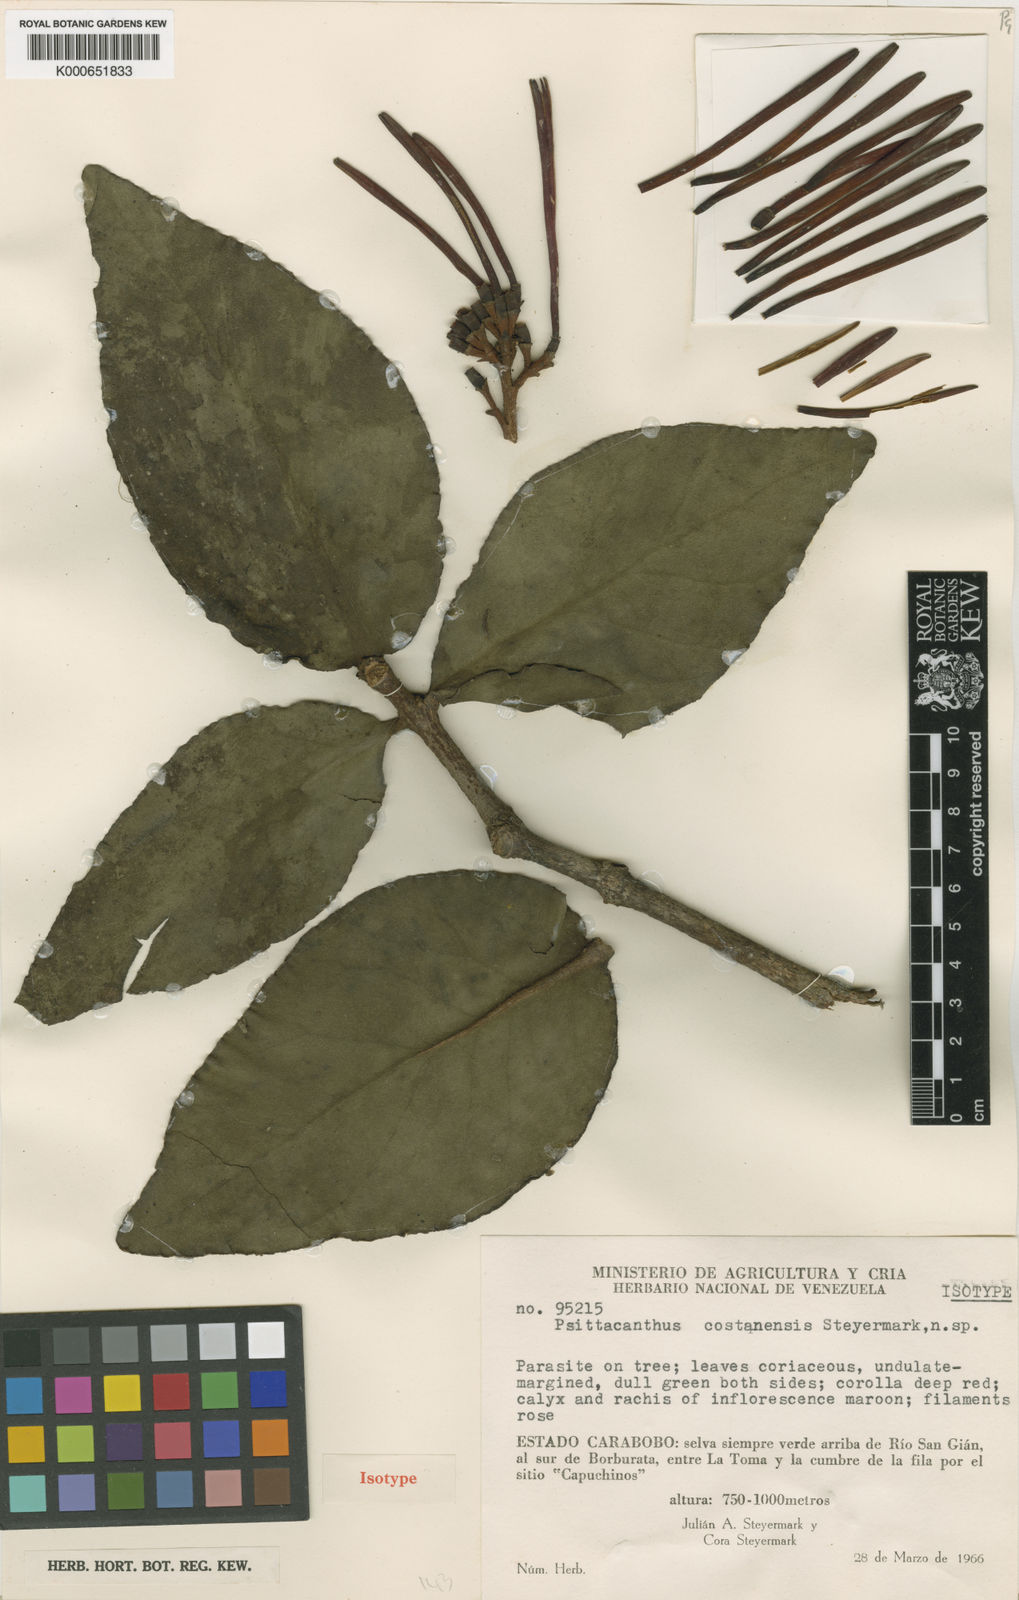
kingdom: Plantae
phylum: Tracheophyta
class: Magnoliopsida
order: Santalales
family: Loranthaceae
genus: Psittacanthus
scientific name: Psittacanthus costanensis
